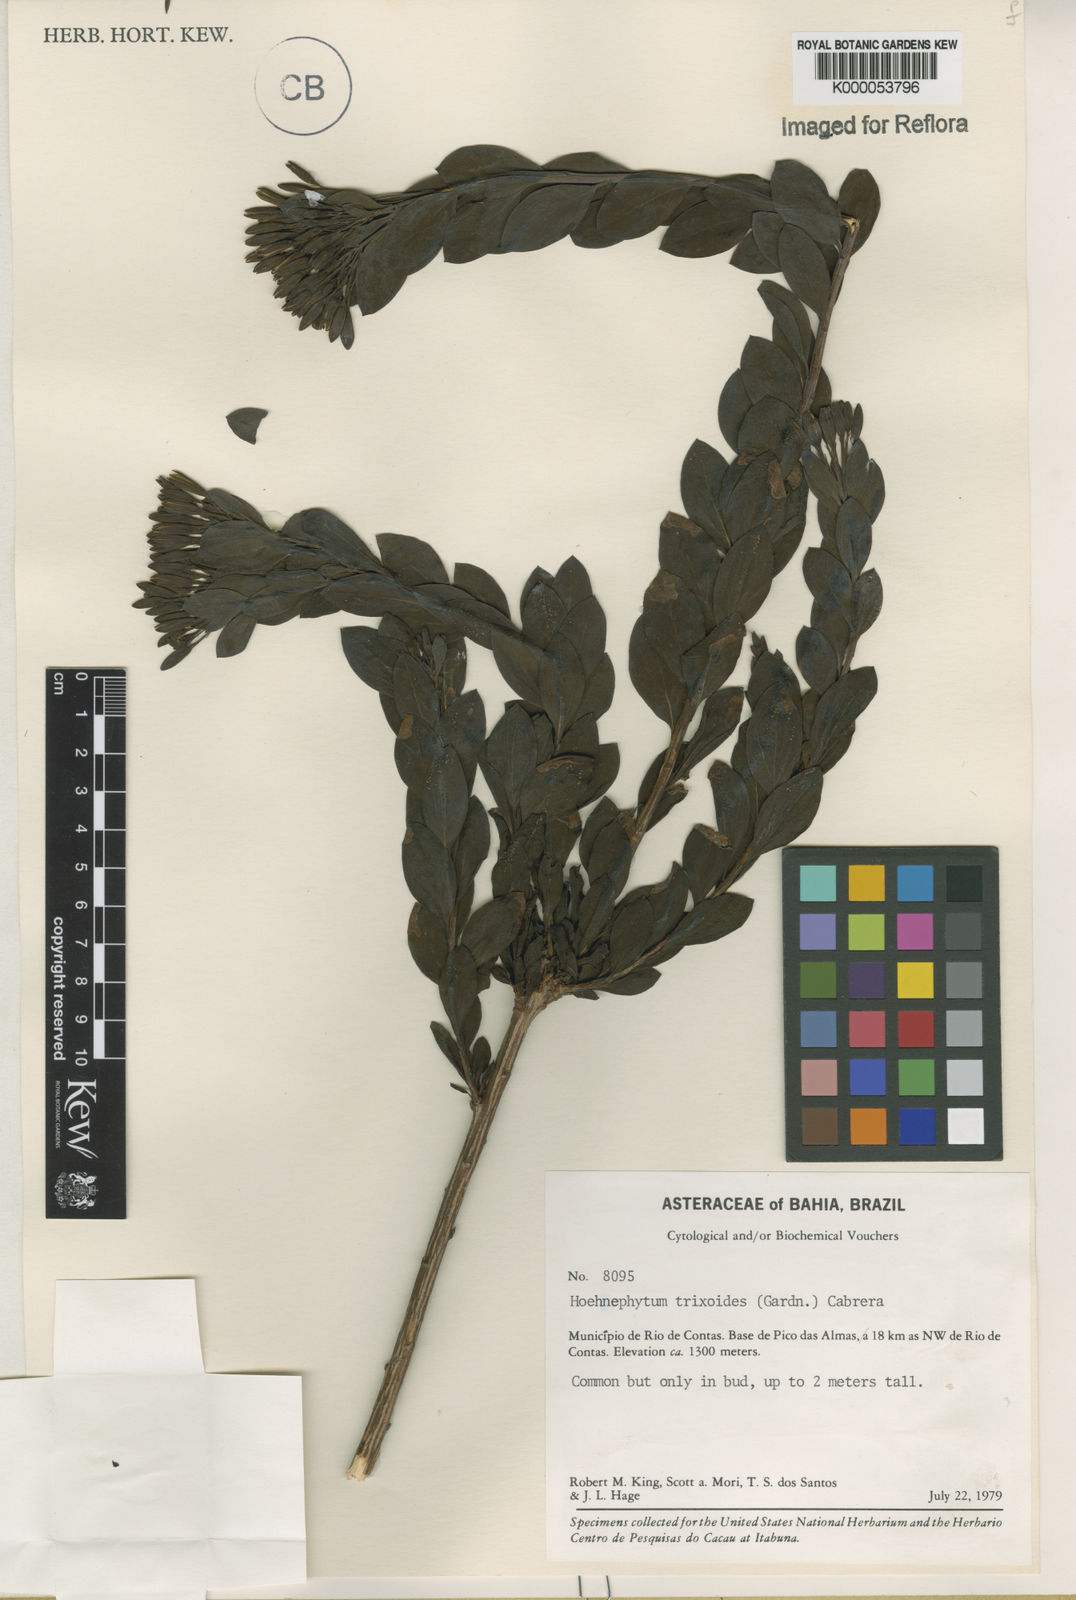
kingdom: Plantae
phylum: Tracheophyta
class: Magnoliopsida
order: Asterales
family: Asteraceae
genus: Hoehnephytum
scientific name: Hoehnephytum trixoides
